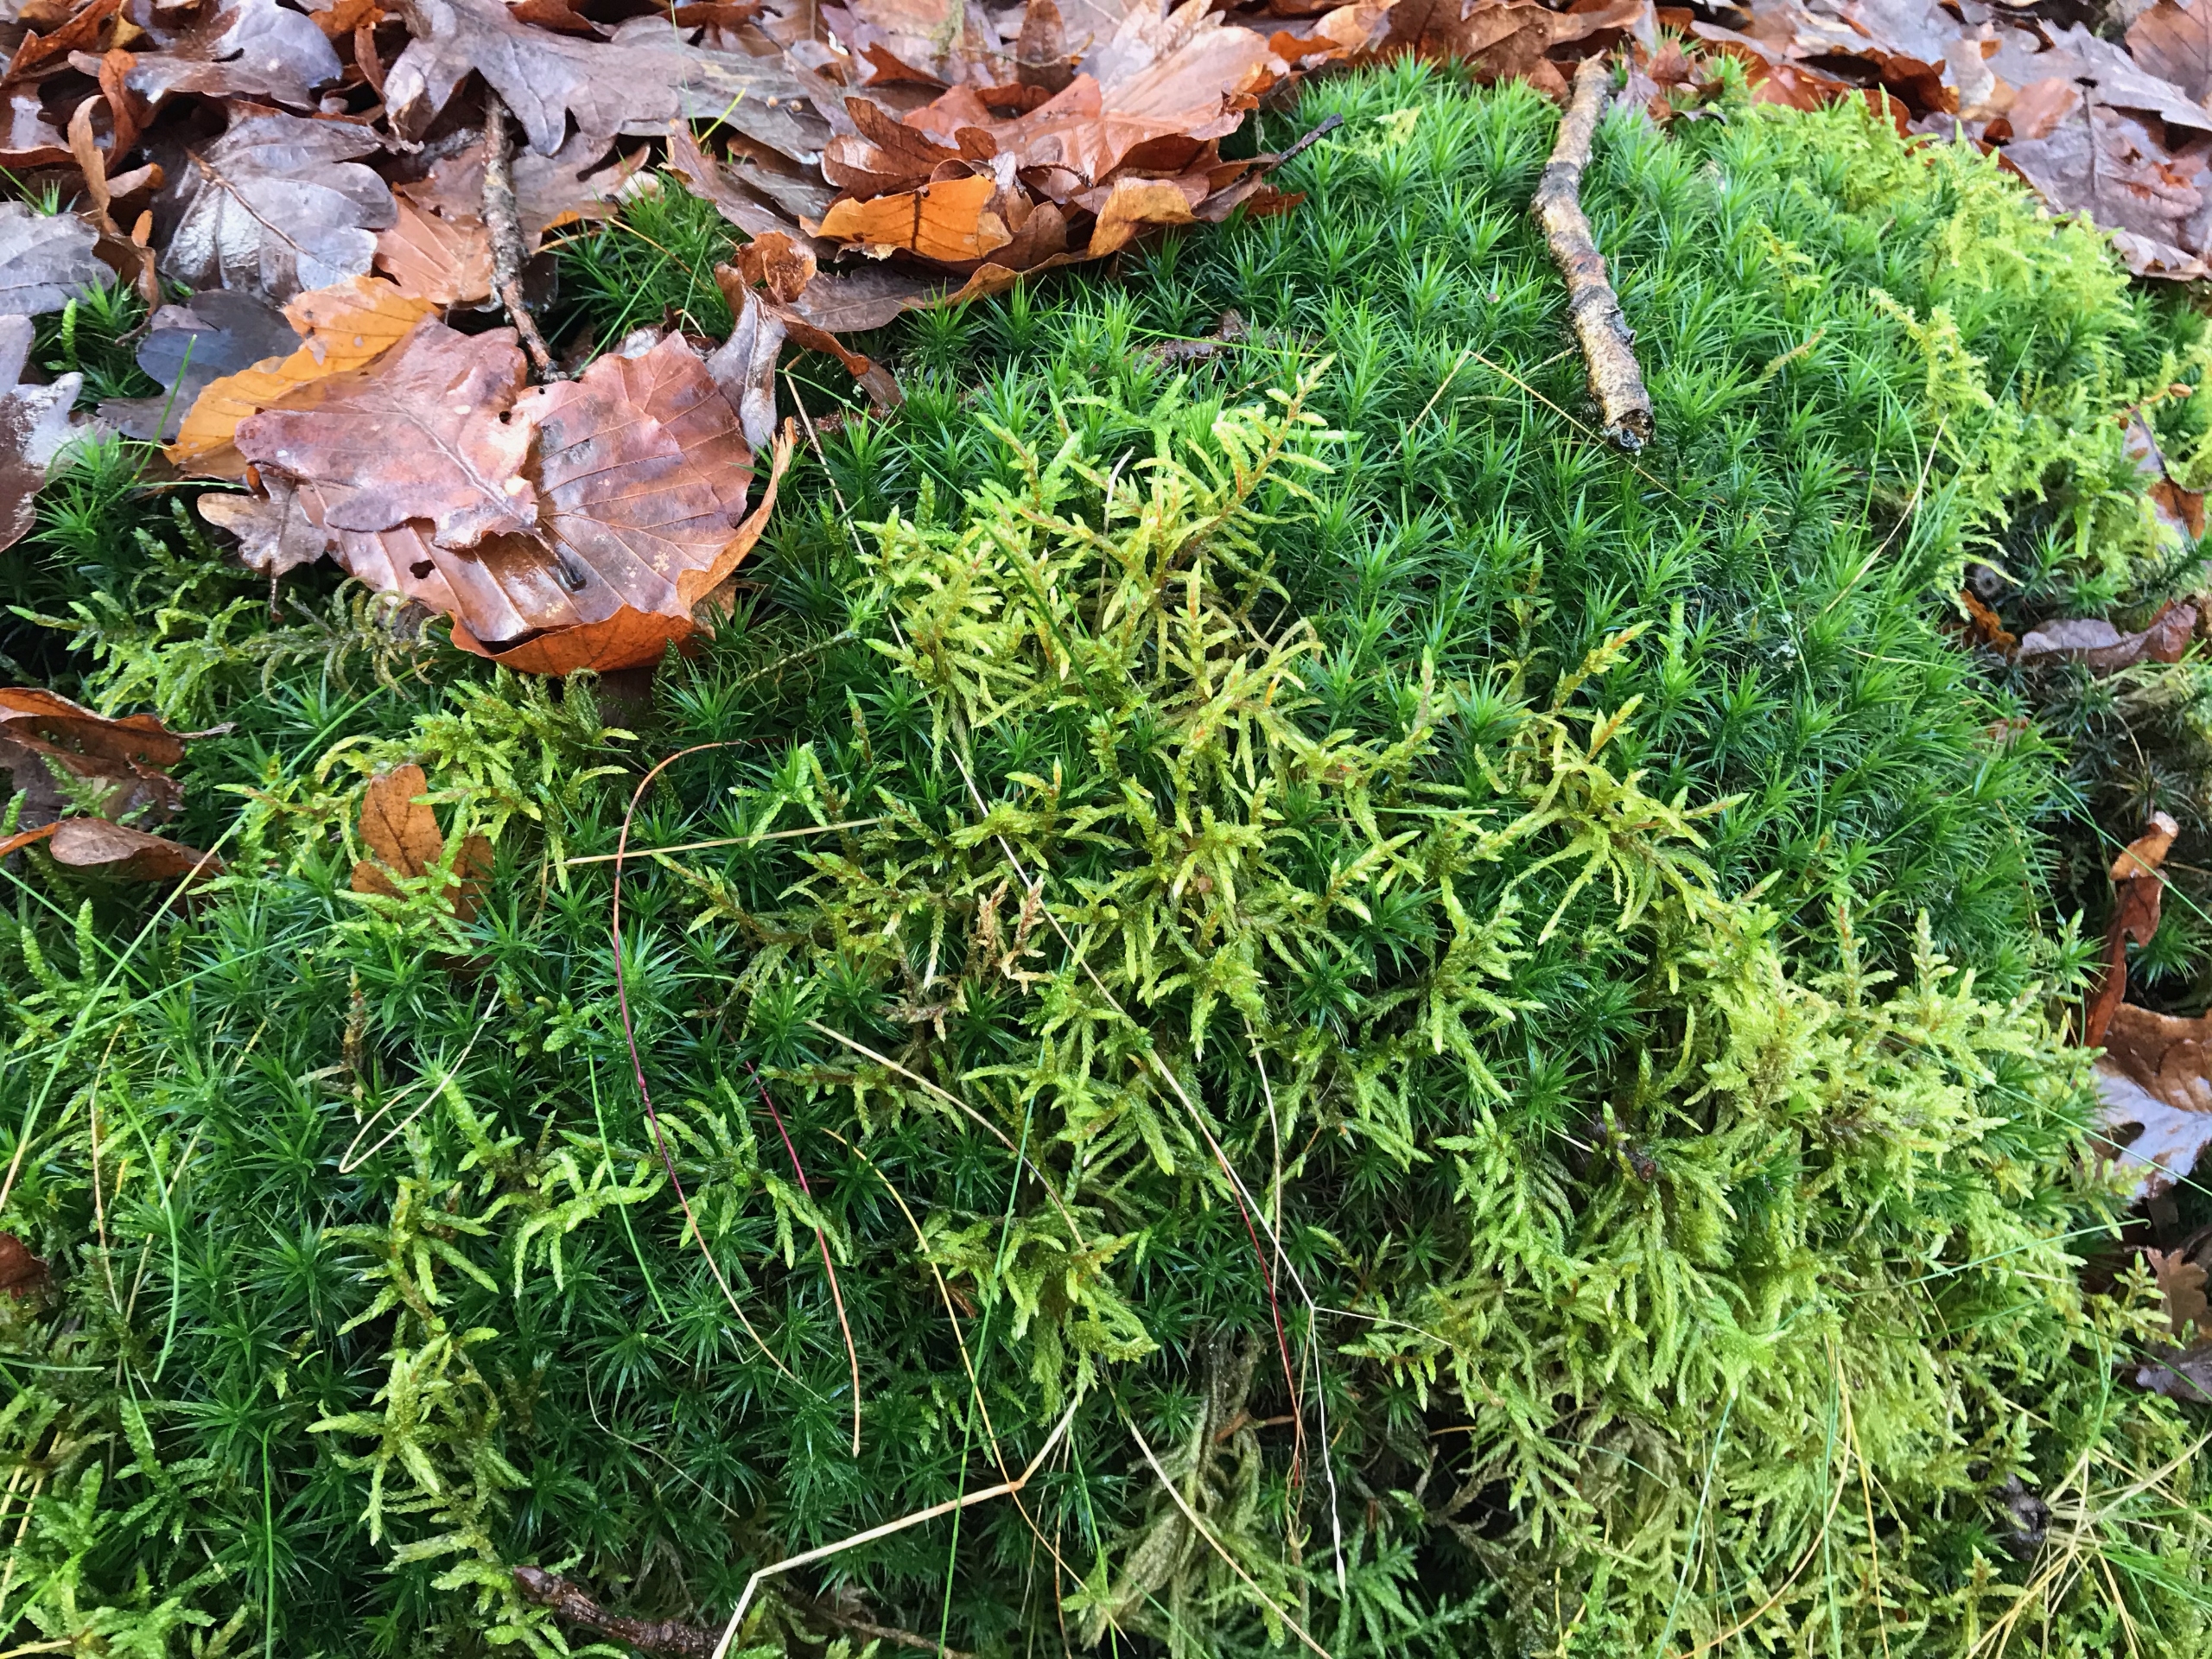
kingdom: Plantae
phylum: Bryophyta
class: Bryopsida
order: Hypnales
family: Hylocomiaceae
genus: Pleurozium
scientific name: Pleurozium schreberi
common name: Trind fyrremos
